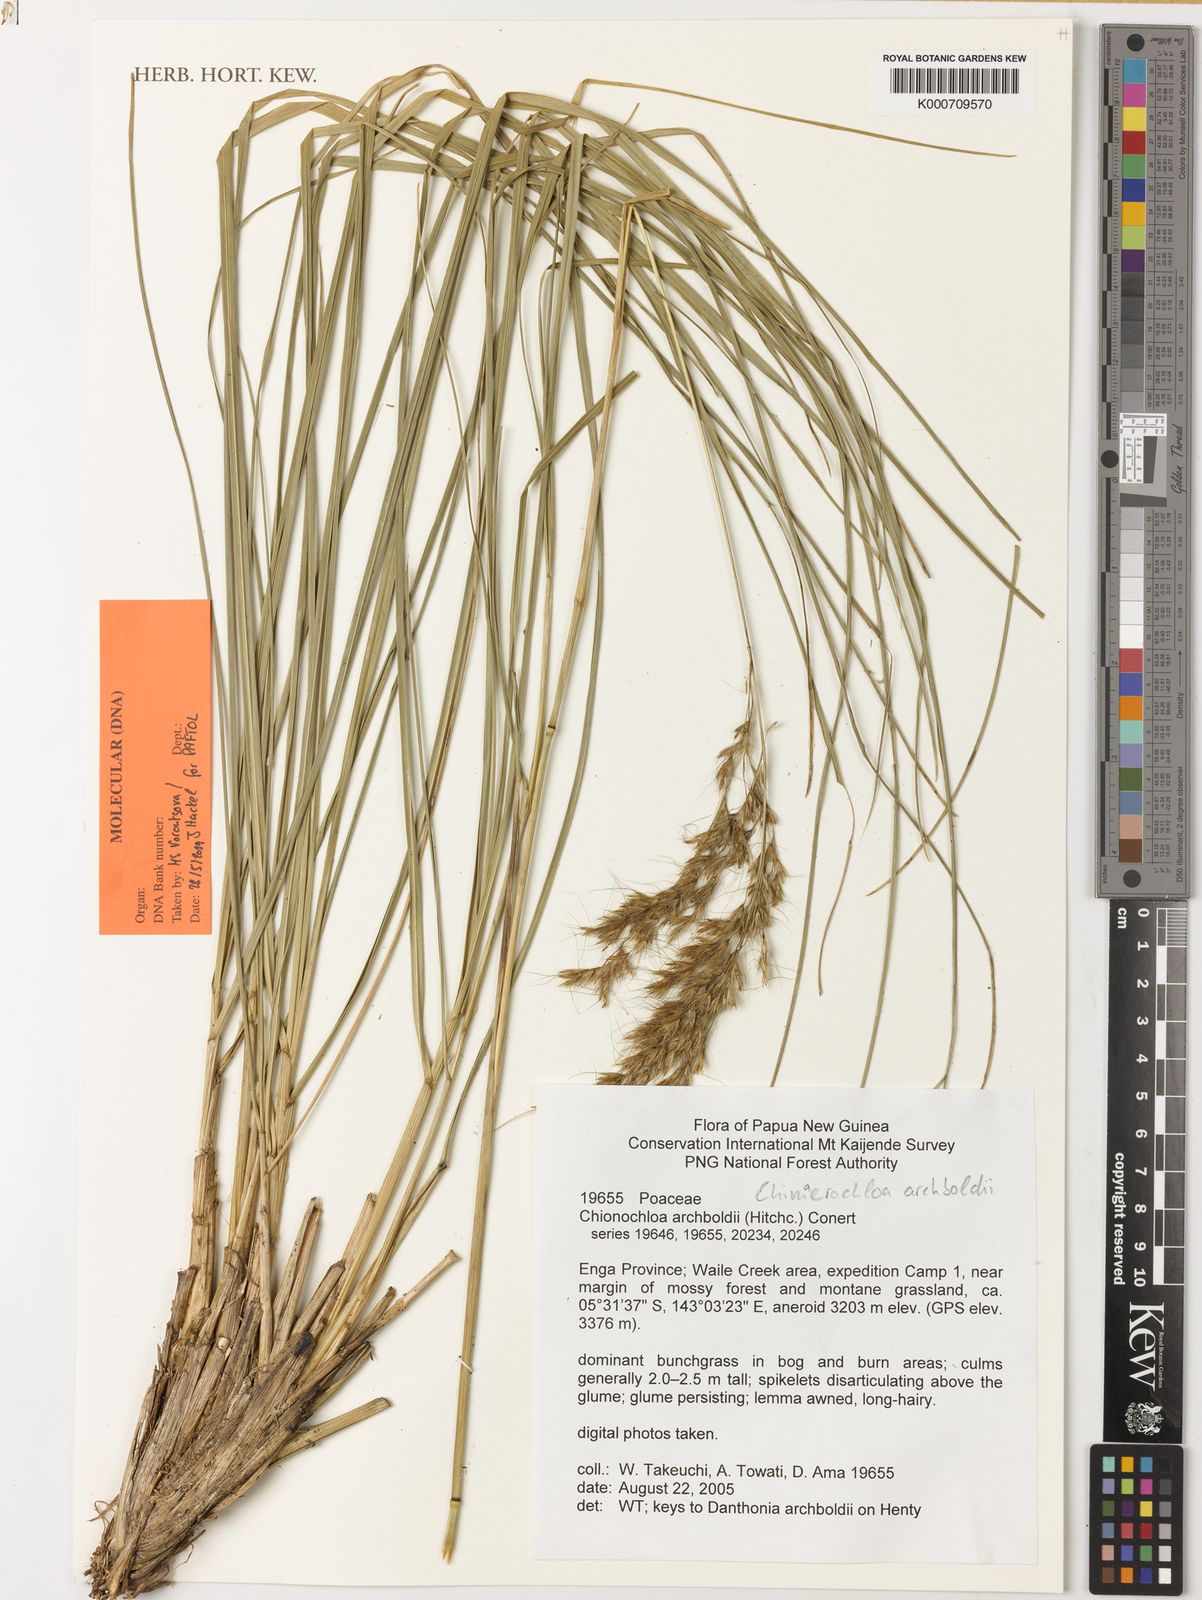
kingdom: Plantae
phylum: Tracheophyta
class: Liliopsida
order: Poales
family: Poaceae
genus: Chimaerochloa
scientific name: Chimaerochloa archboldii
